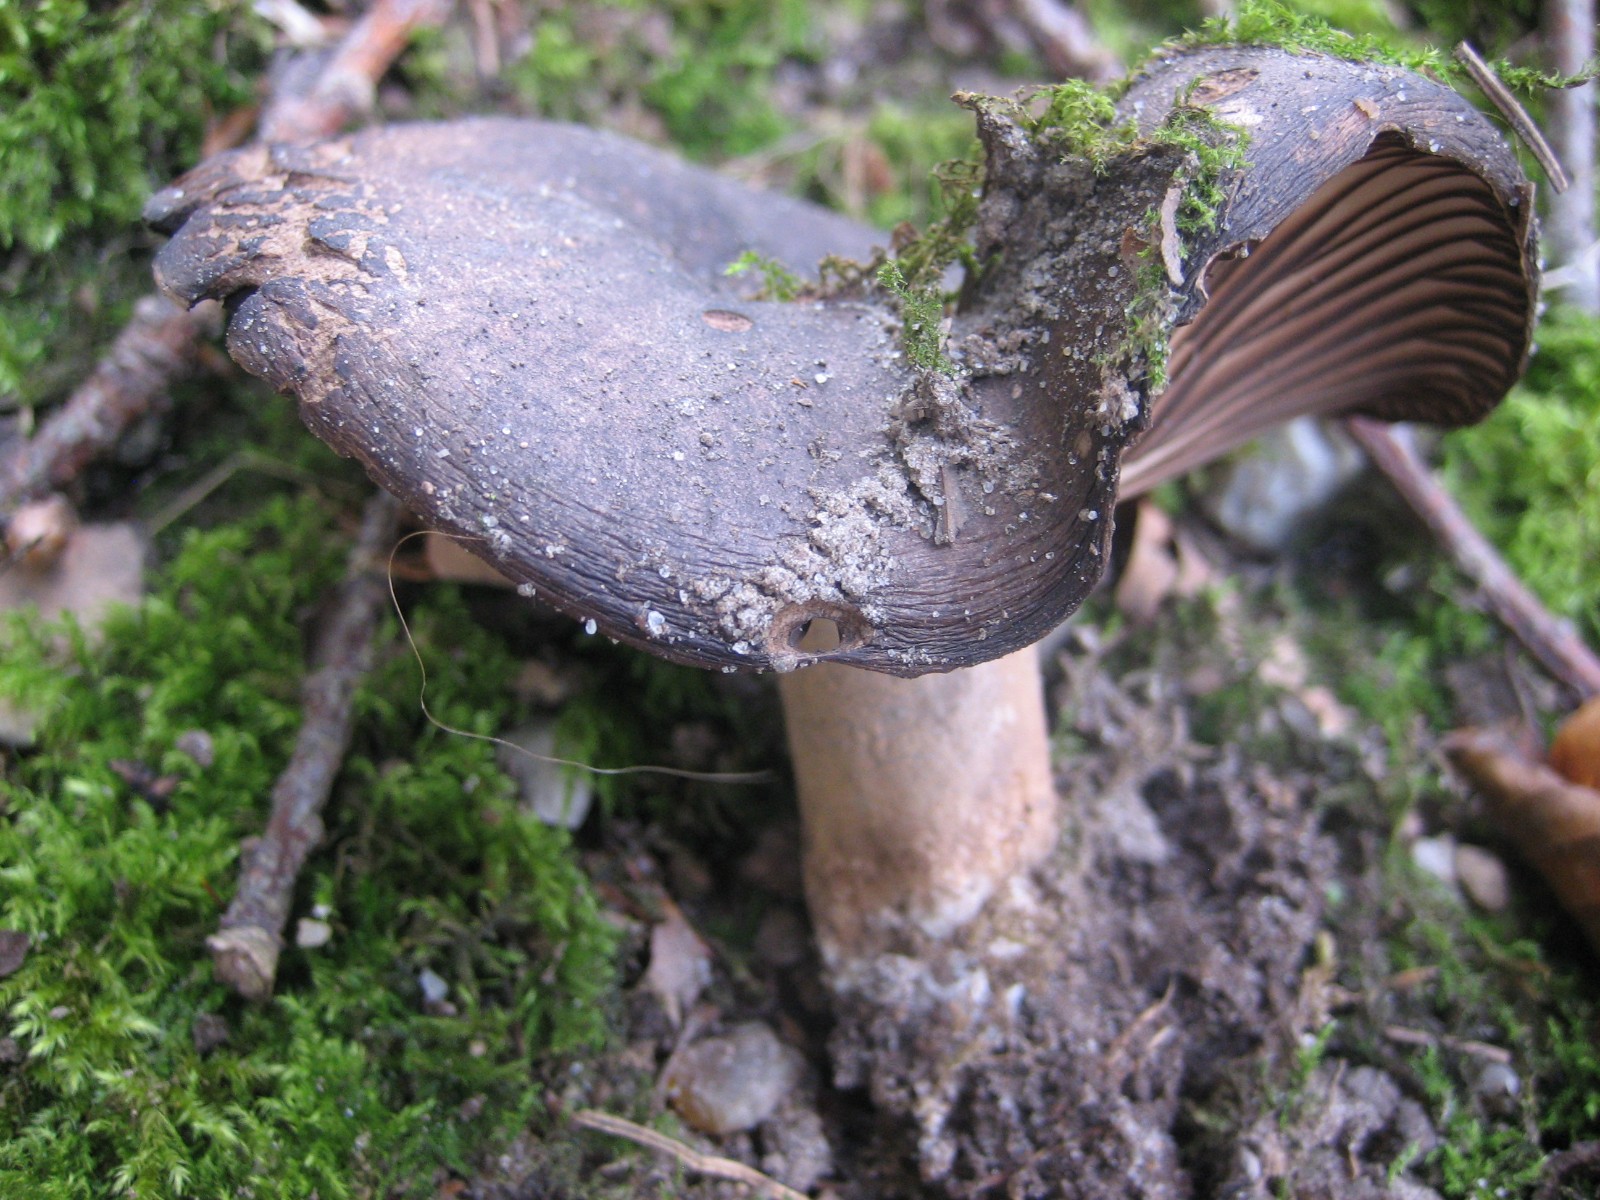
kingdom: Fungi
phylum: Basidiomycota
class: Agaricomycetes
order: Russulales
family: Russulaceae
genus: Russula
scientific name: Russula adusta
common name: sværtende skørhat
